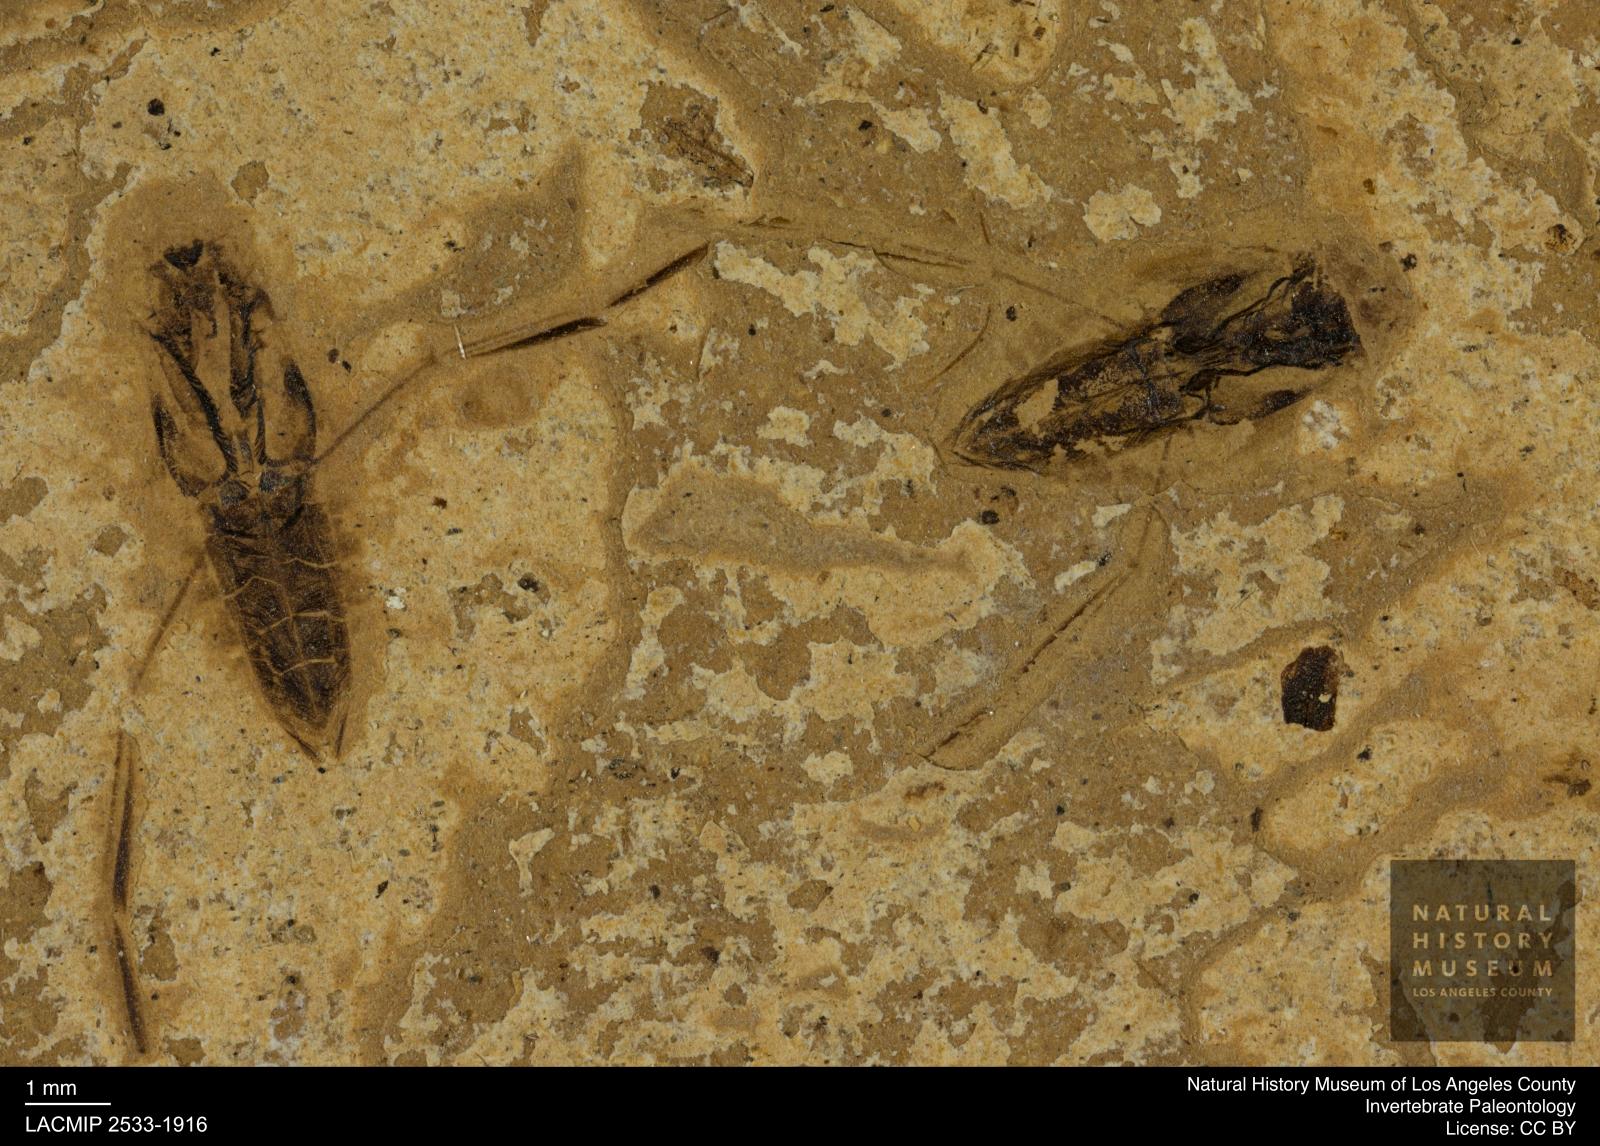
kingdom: Animalia
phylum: Arthropoda
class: Insecta
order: Hemiptera
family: Notonectidae
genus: Notonecta
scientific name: Notonecta
